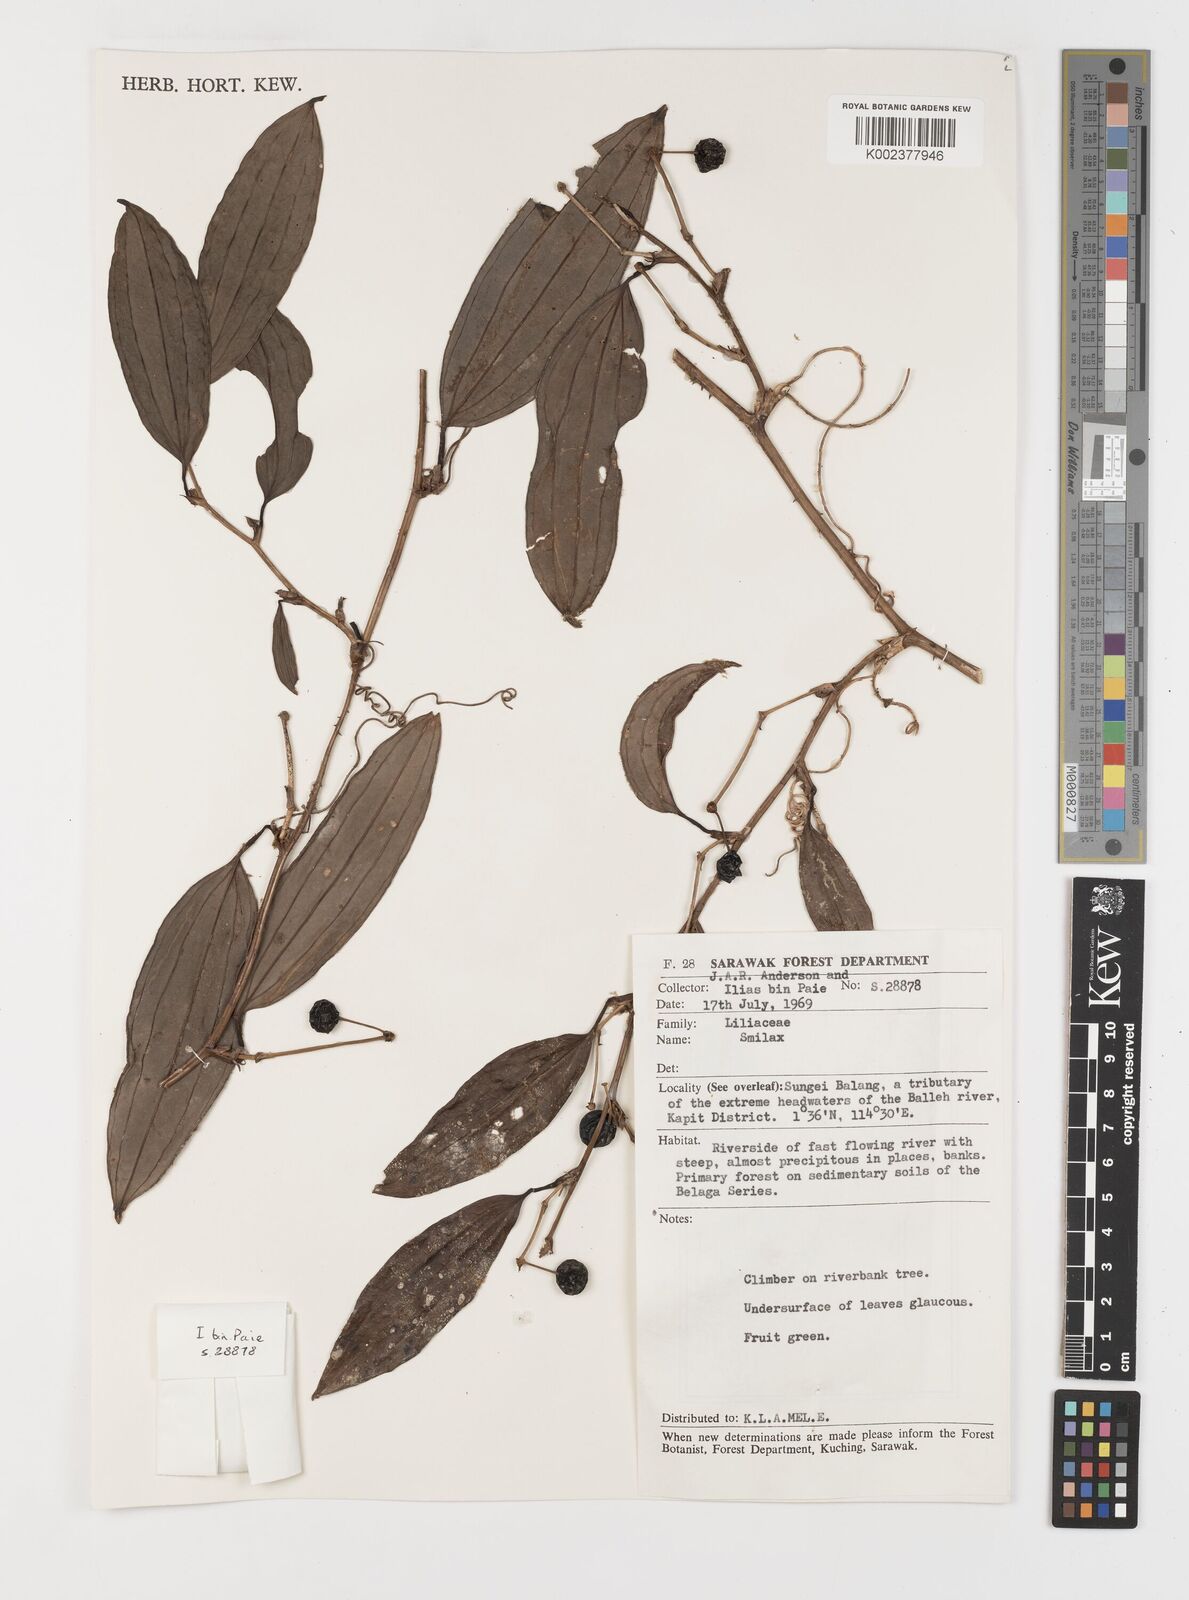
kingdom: Plantae
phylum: Tracheophyta
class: Liliopsida
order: Liliales
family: Smilacaceae
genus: Smilax
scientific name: Smilax
